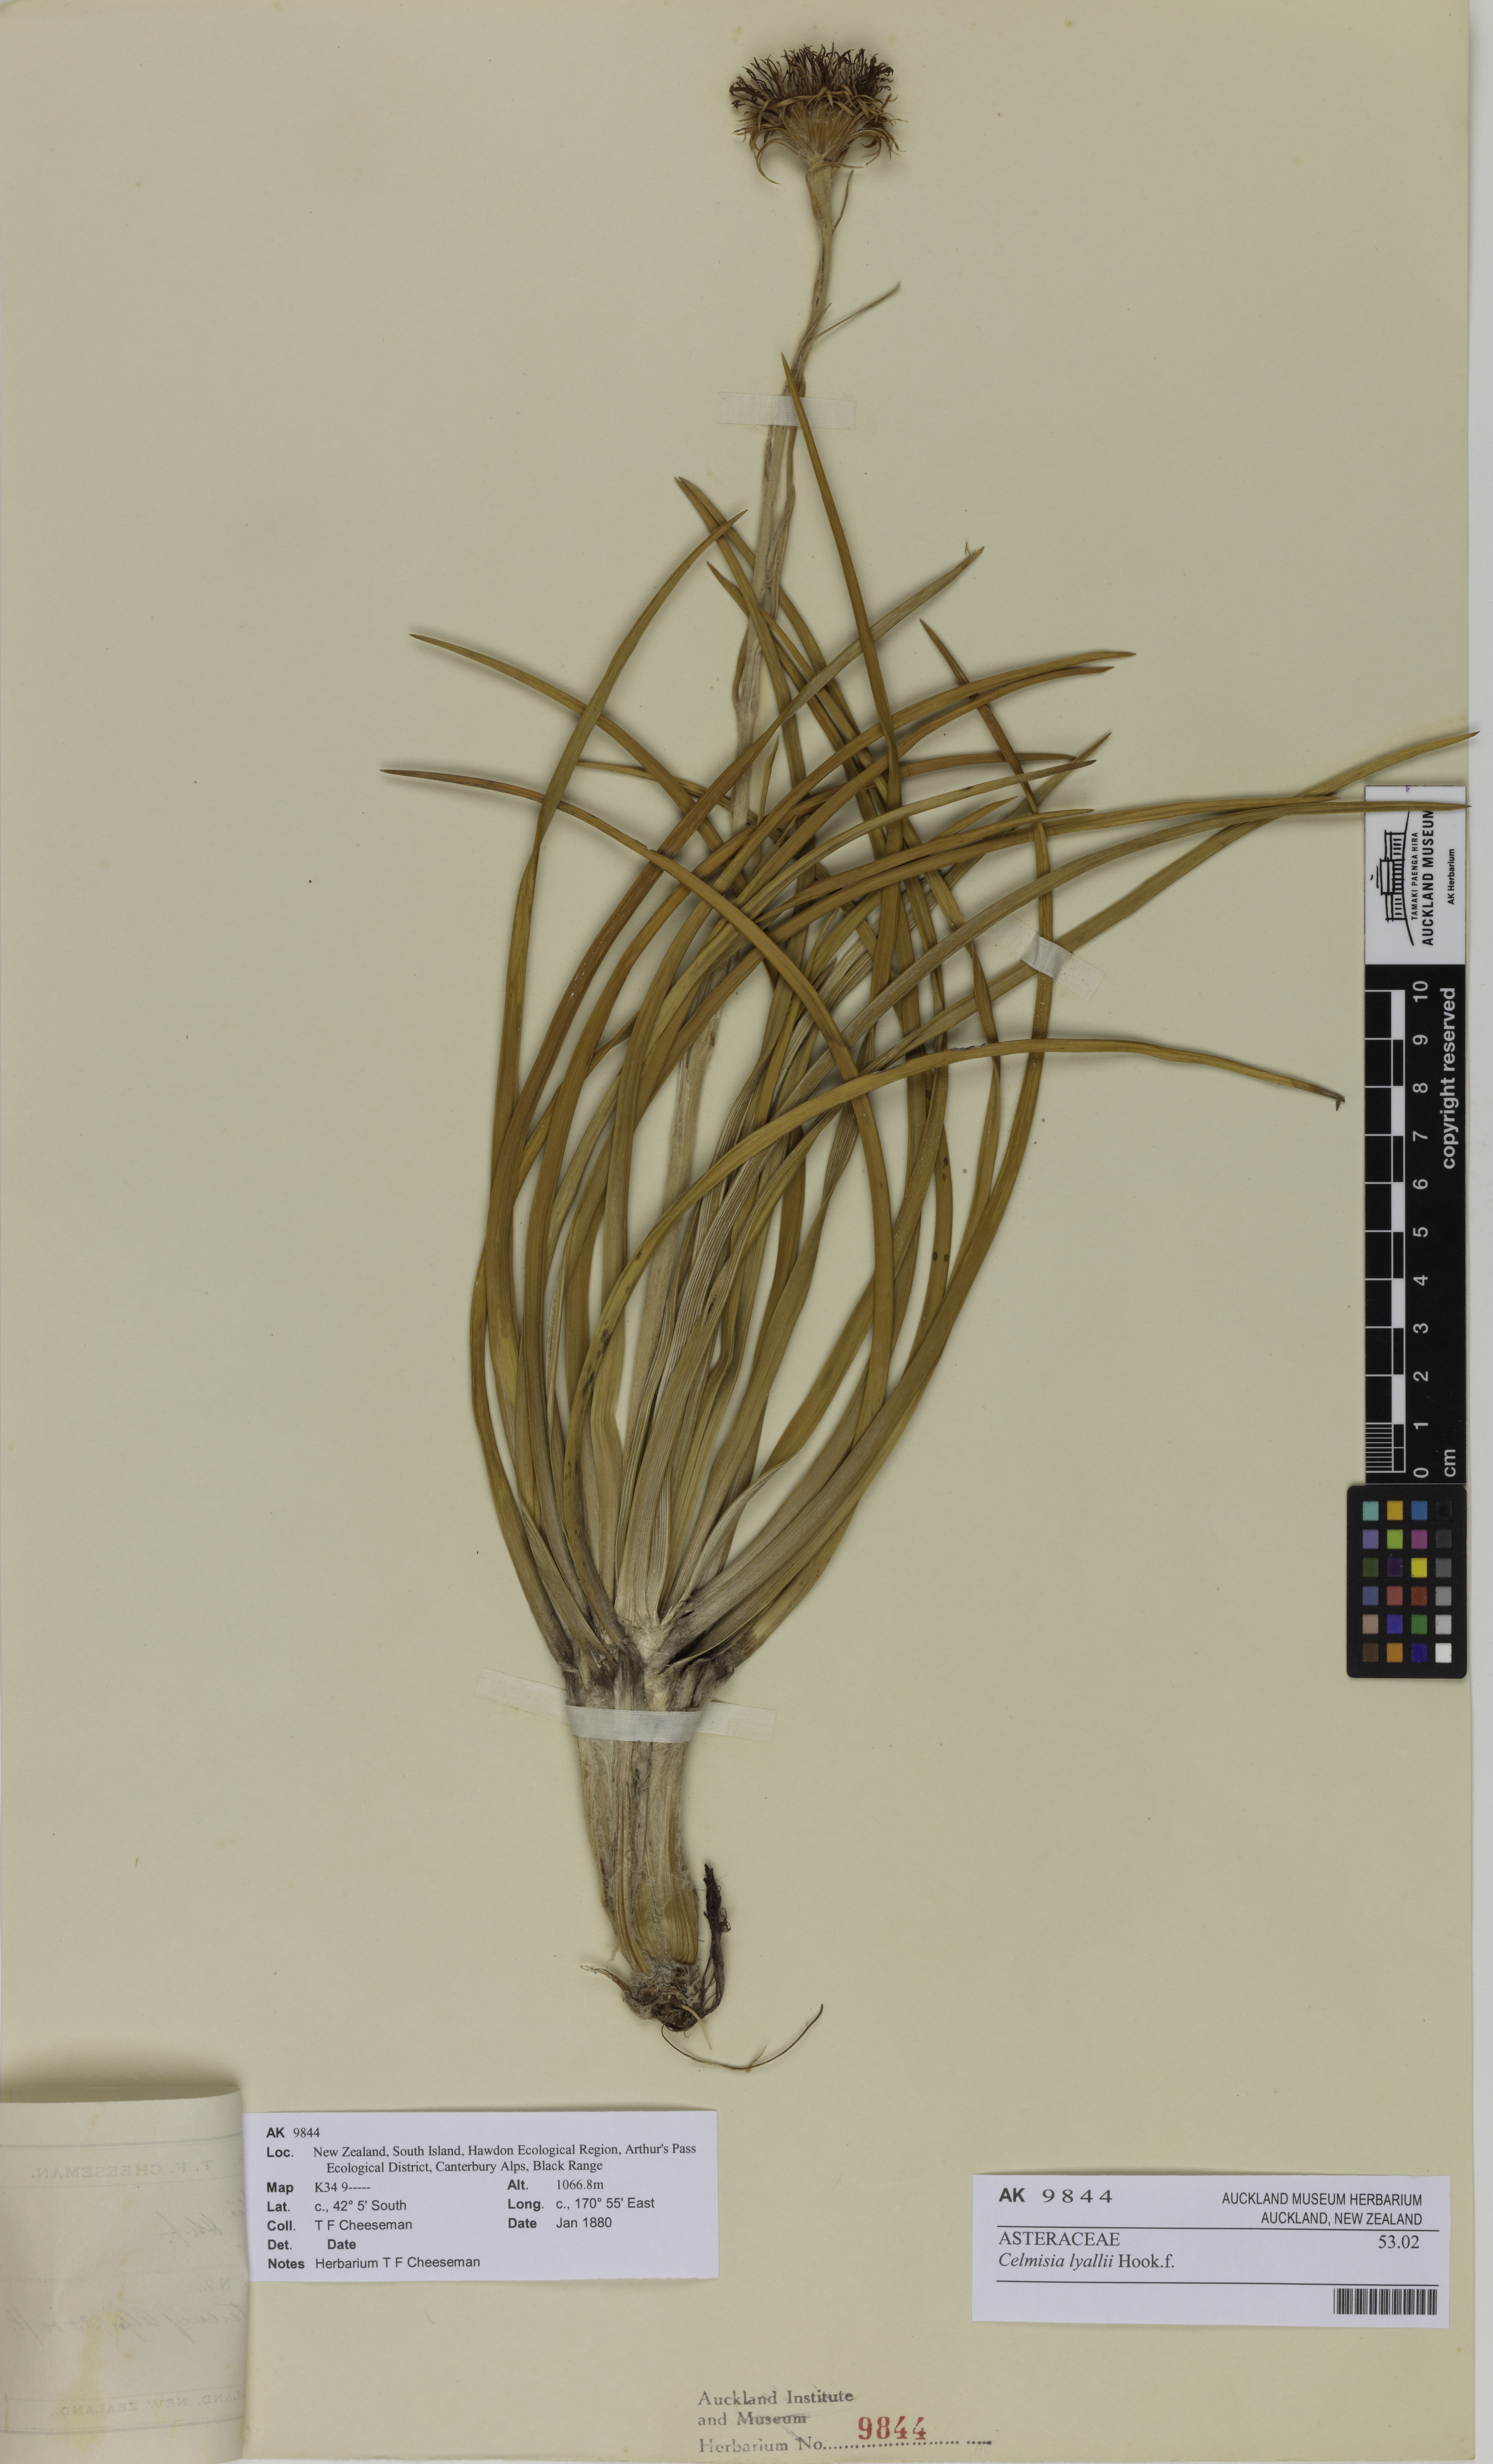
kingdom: Plantae
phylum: Tracheophyta
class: Magnoliopsida
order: Asterales
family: Asteraceae
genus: Celmisia
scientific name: Celmisia lyallii
